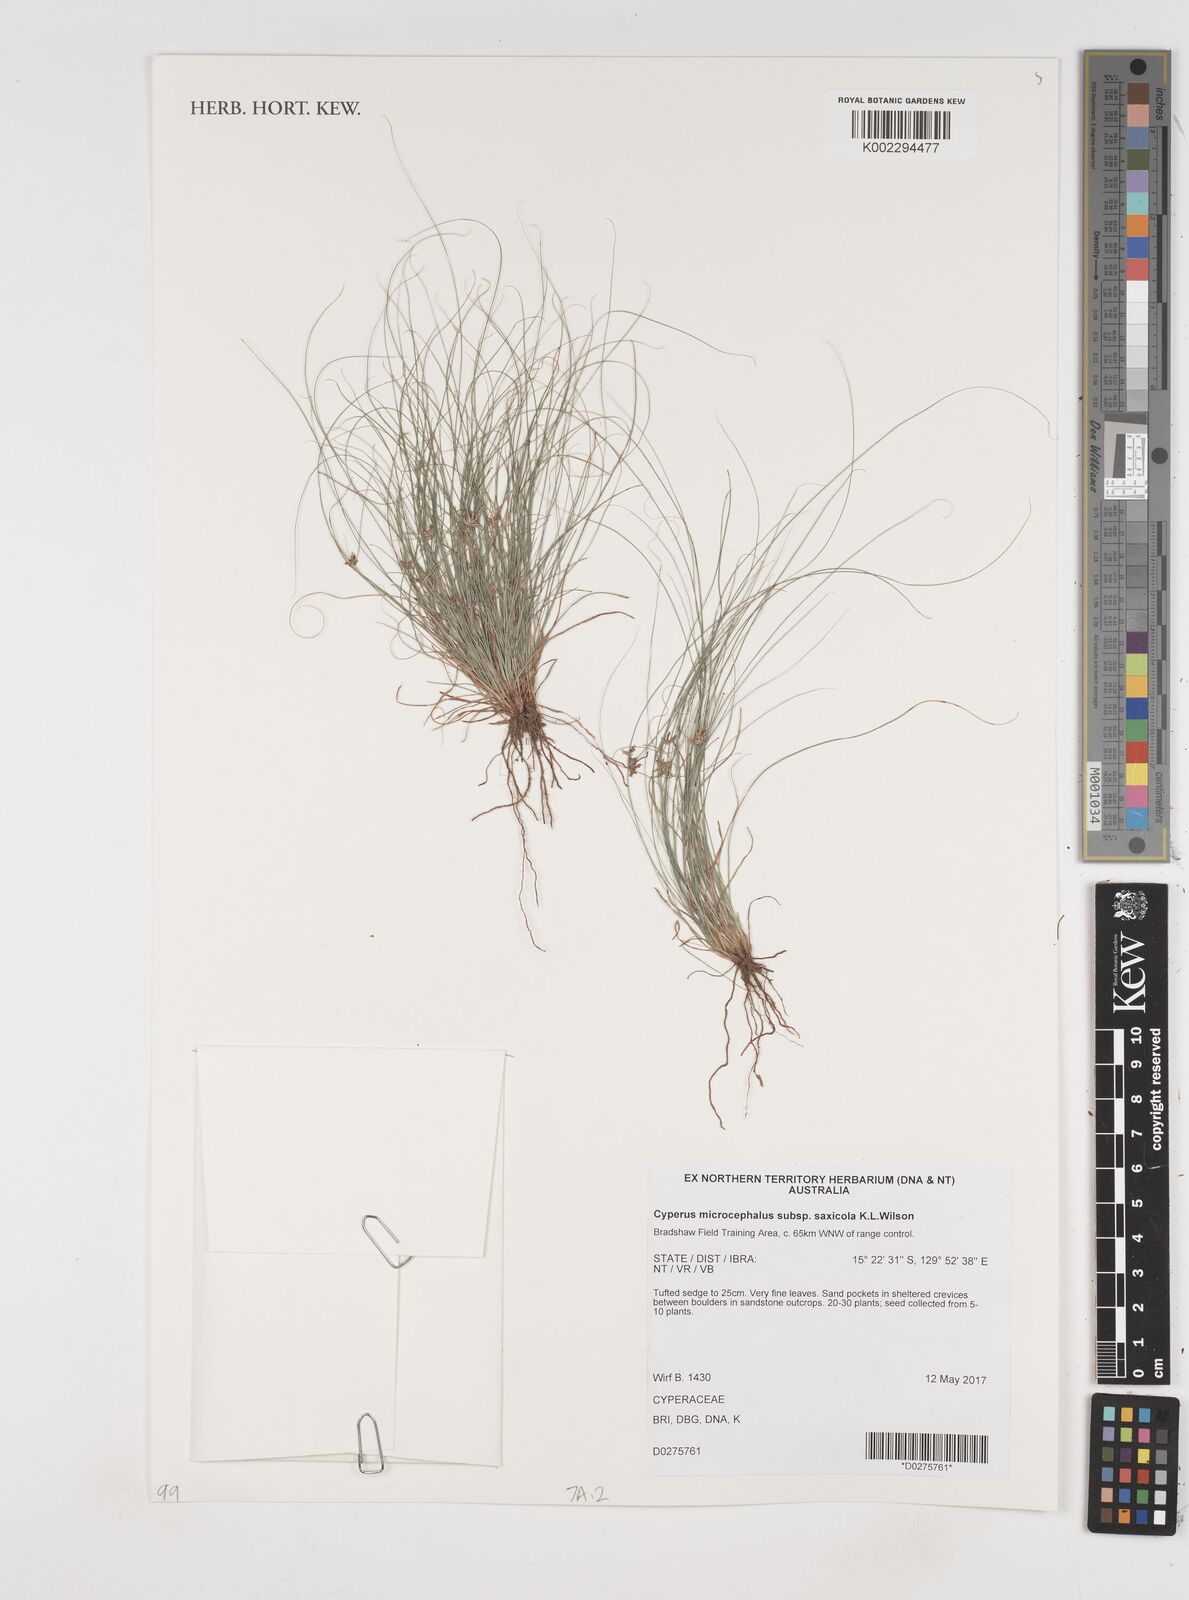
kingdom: Plantae
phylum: Tracheophyta
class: Liliopsida
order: Poales
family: Cyperaceae
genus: Cyperus
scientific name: Cyperus microcephalus
